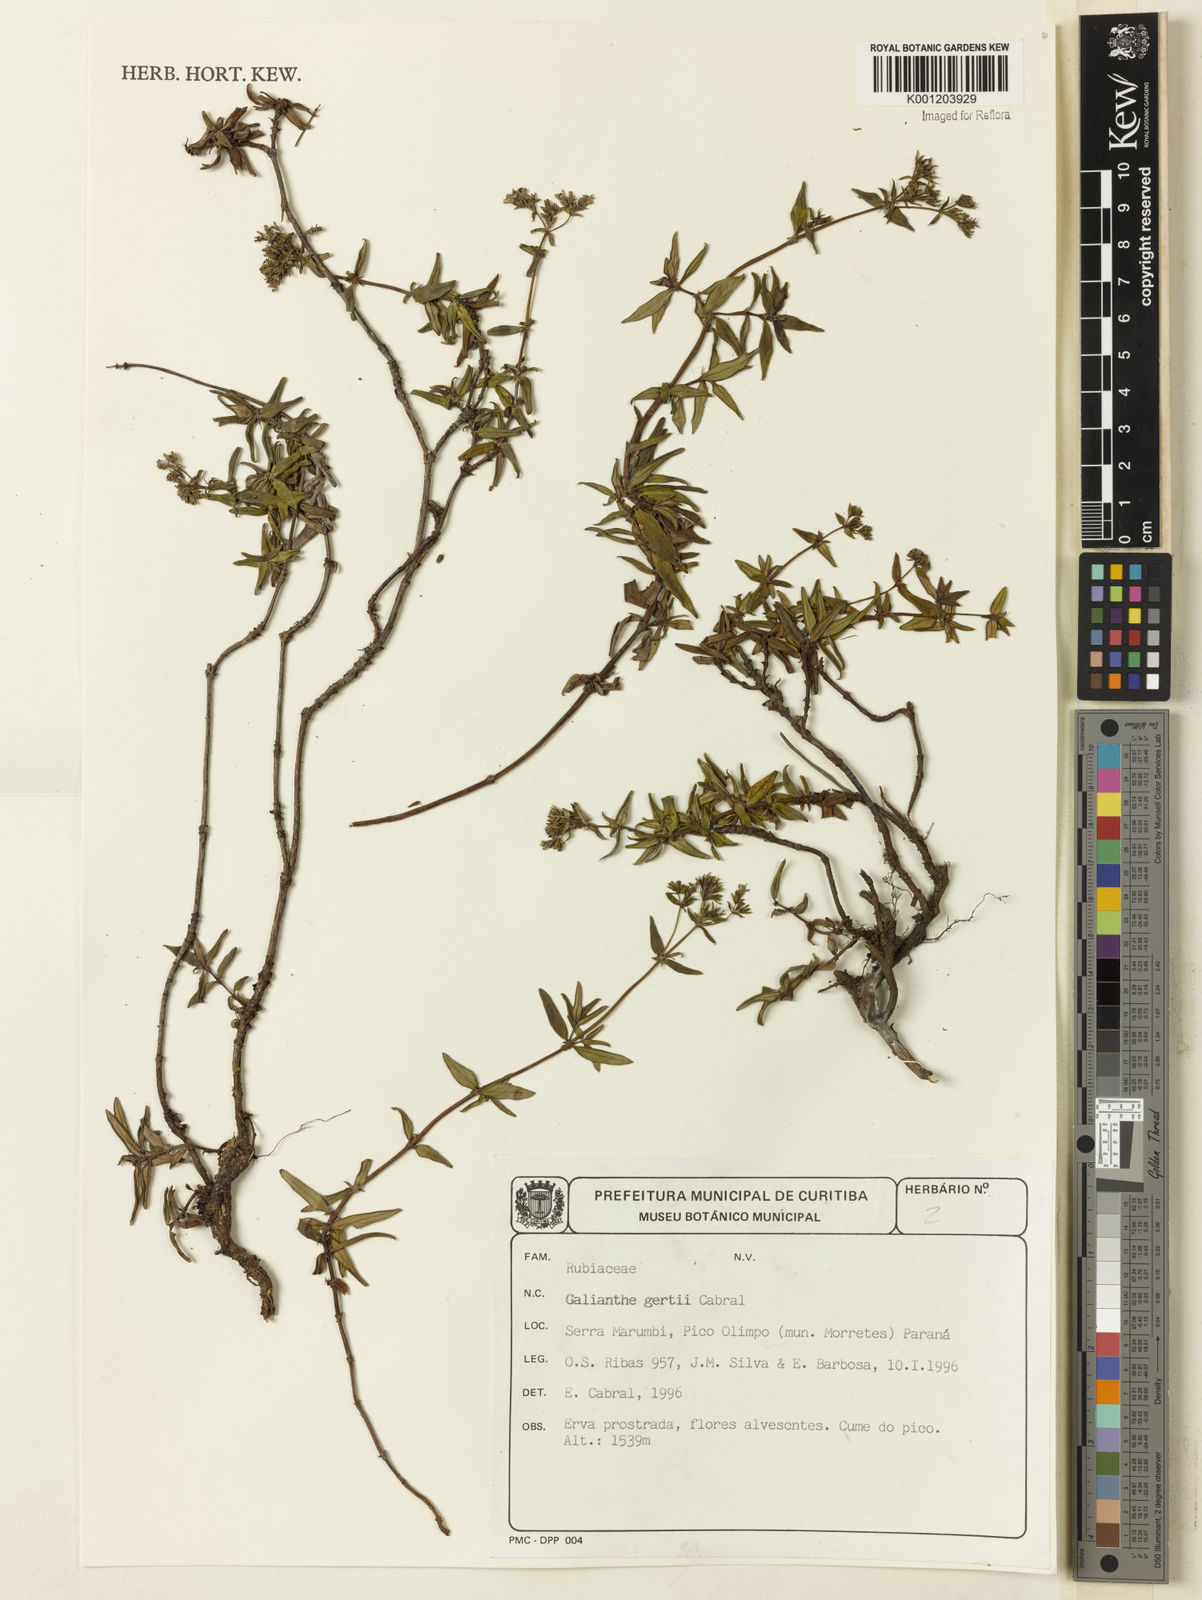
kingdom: Plantae
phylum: Tracheophyta
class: Magnoliopsida
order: Gentianales
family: Rubiaceae
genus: Galianthe
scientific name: Galianthe gertii
